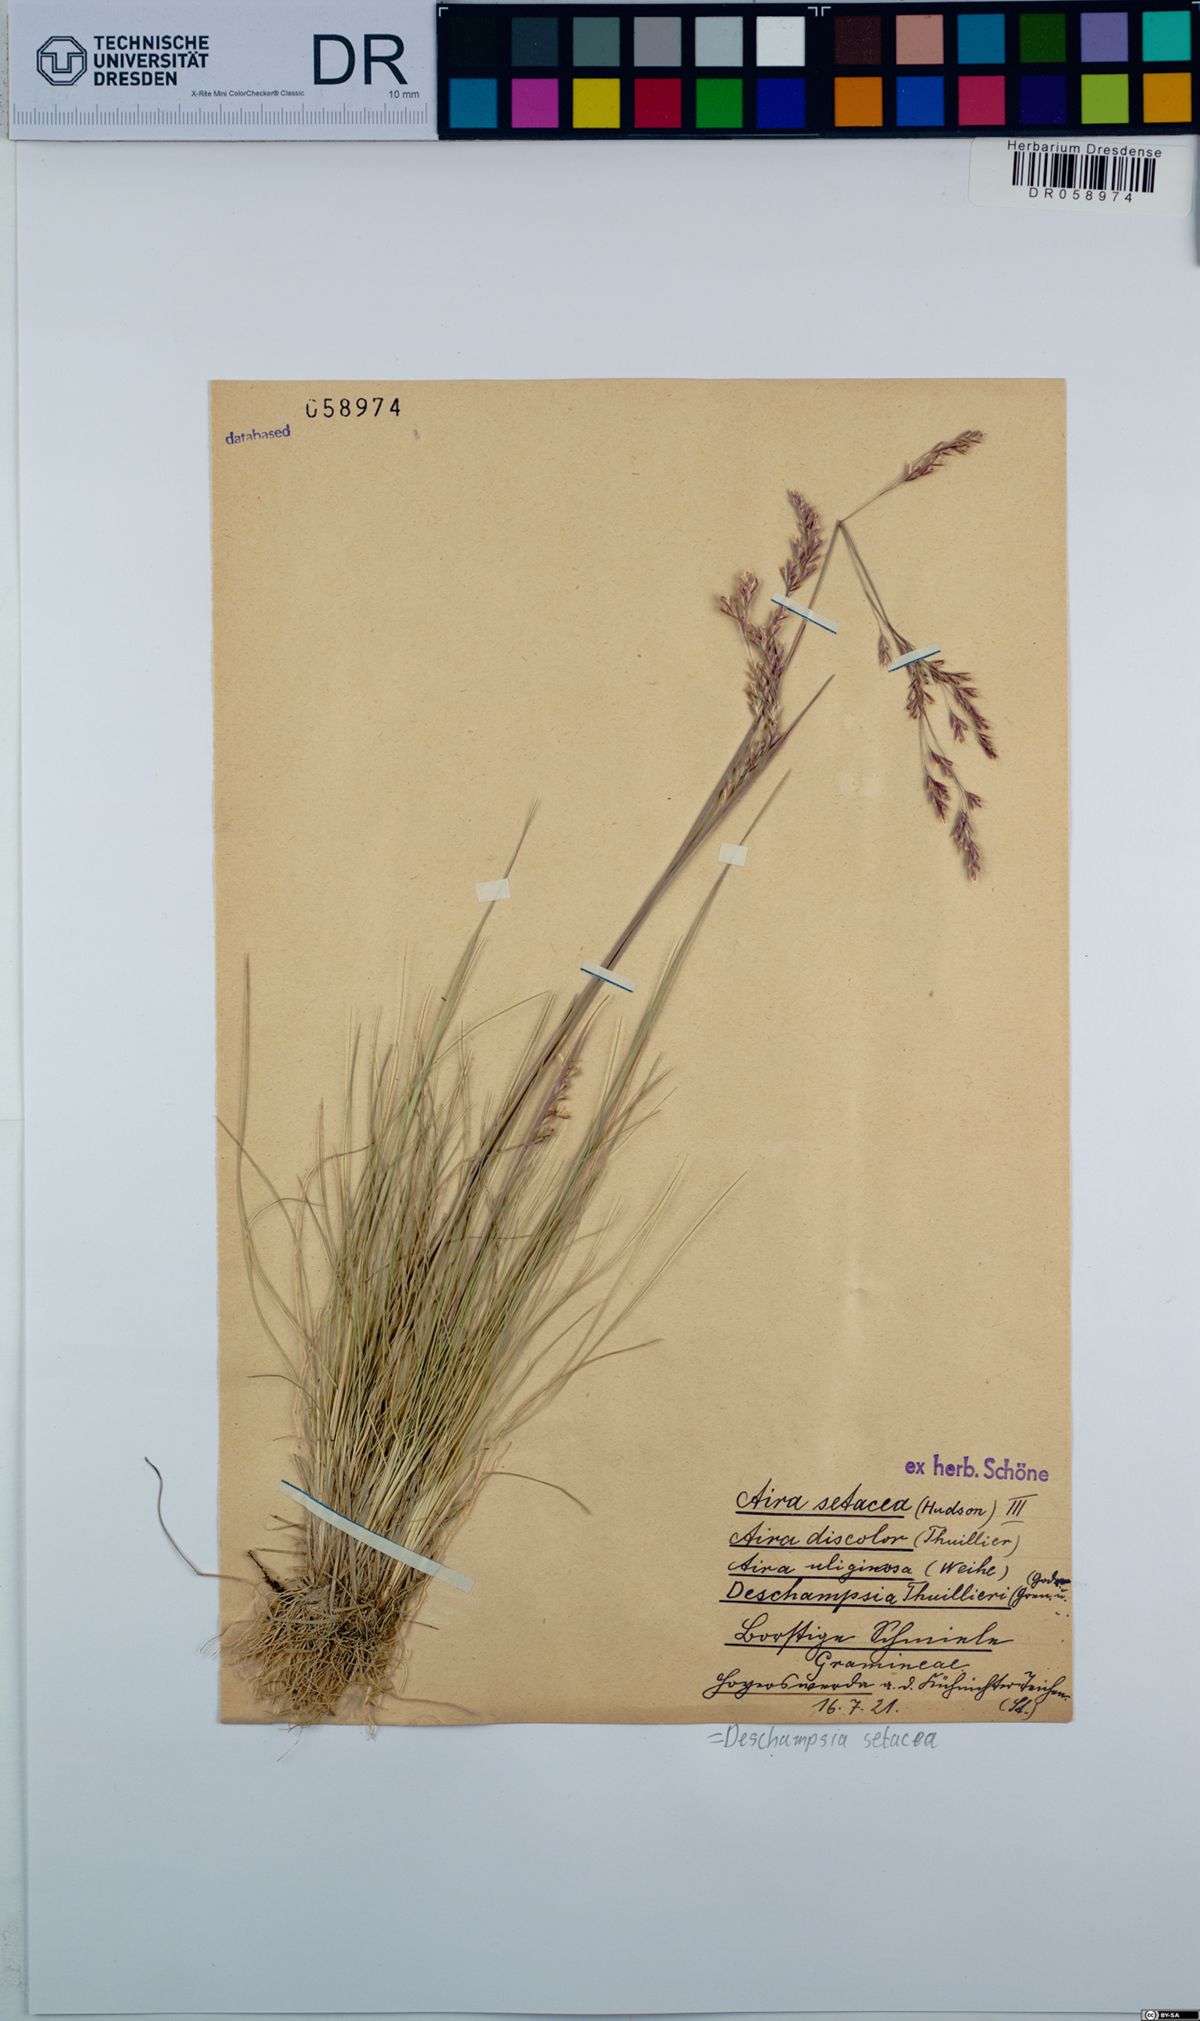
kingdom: Plantae
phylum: Tracheophyta
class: Liliopsida
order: Poales
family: Poaceae
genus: Deschampsia
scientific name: Deschampsia setacea
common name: Bog hair-grass
